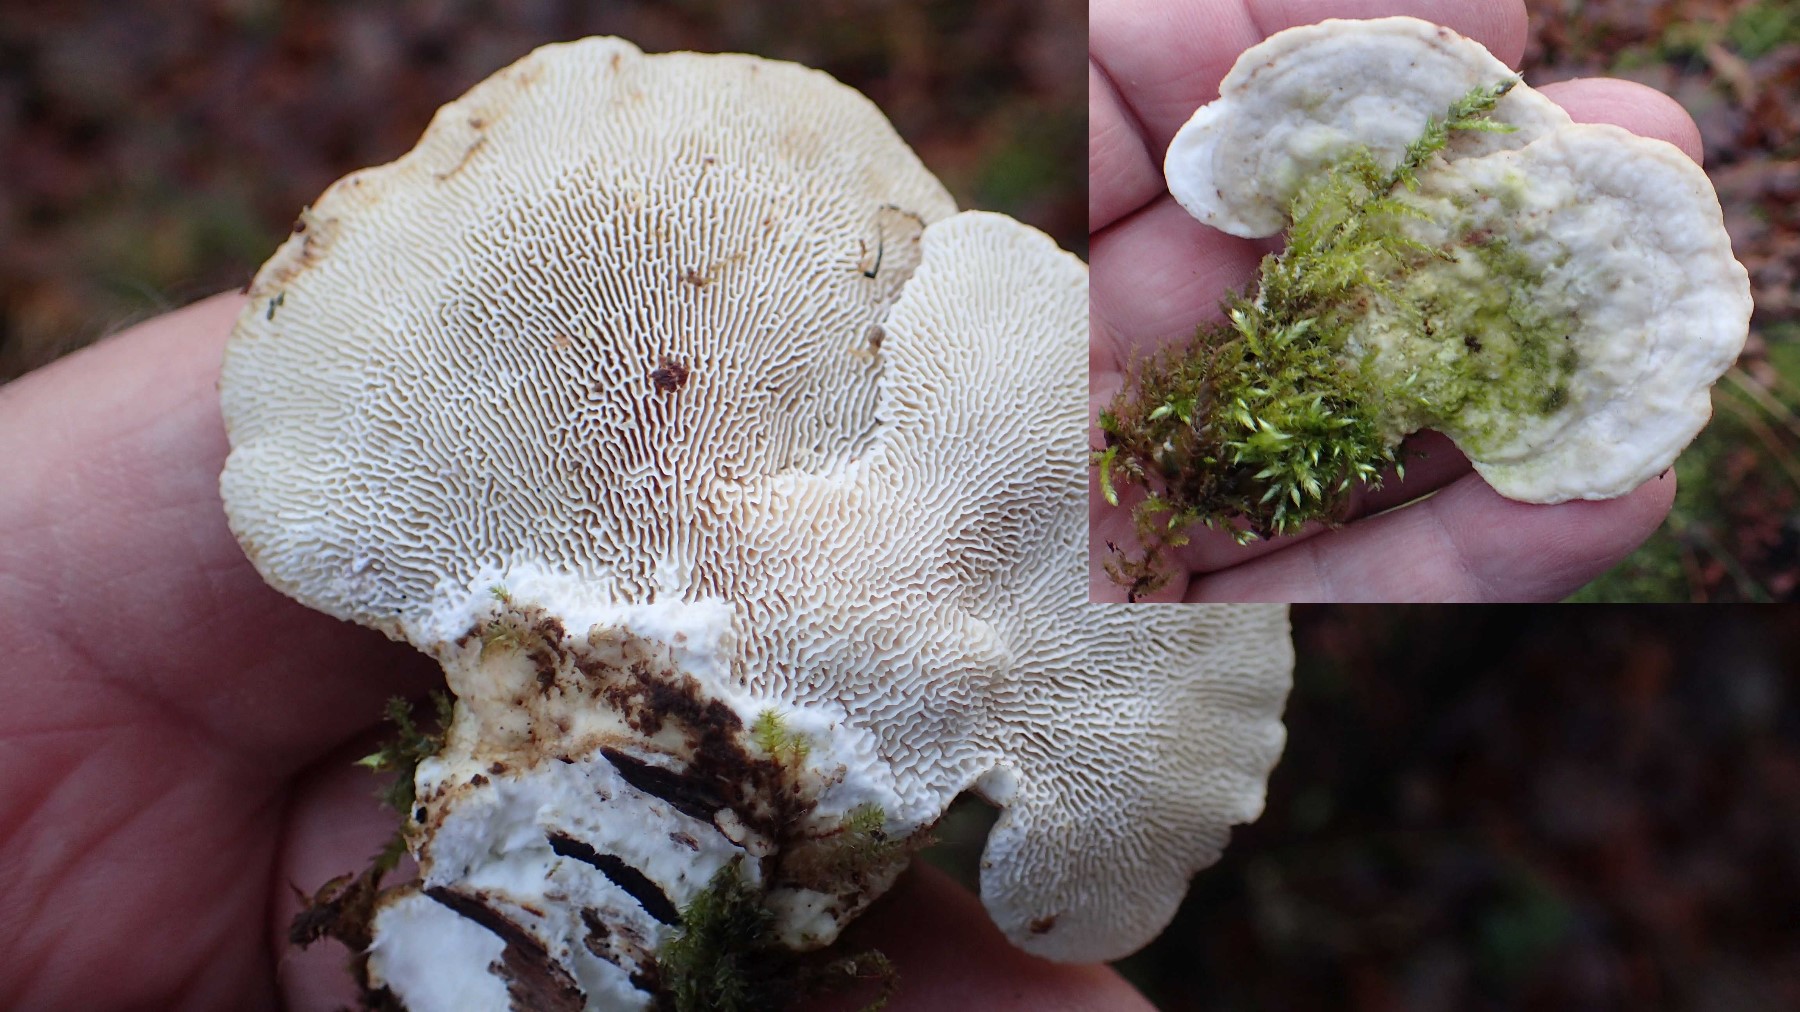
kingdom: Fungi
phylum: Basidiomycota
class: Agaricomycetes
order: Polyporales
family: Polyporaceae
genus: Trametes
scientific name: Trametes gibbosa
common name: puklet læderporesvamp
